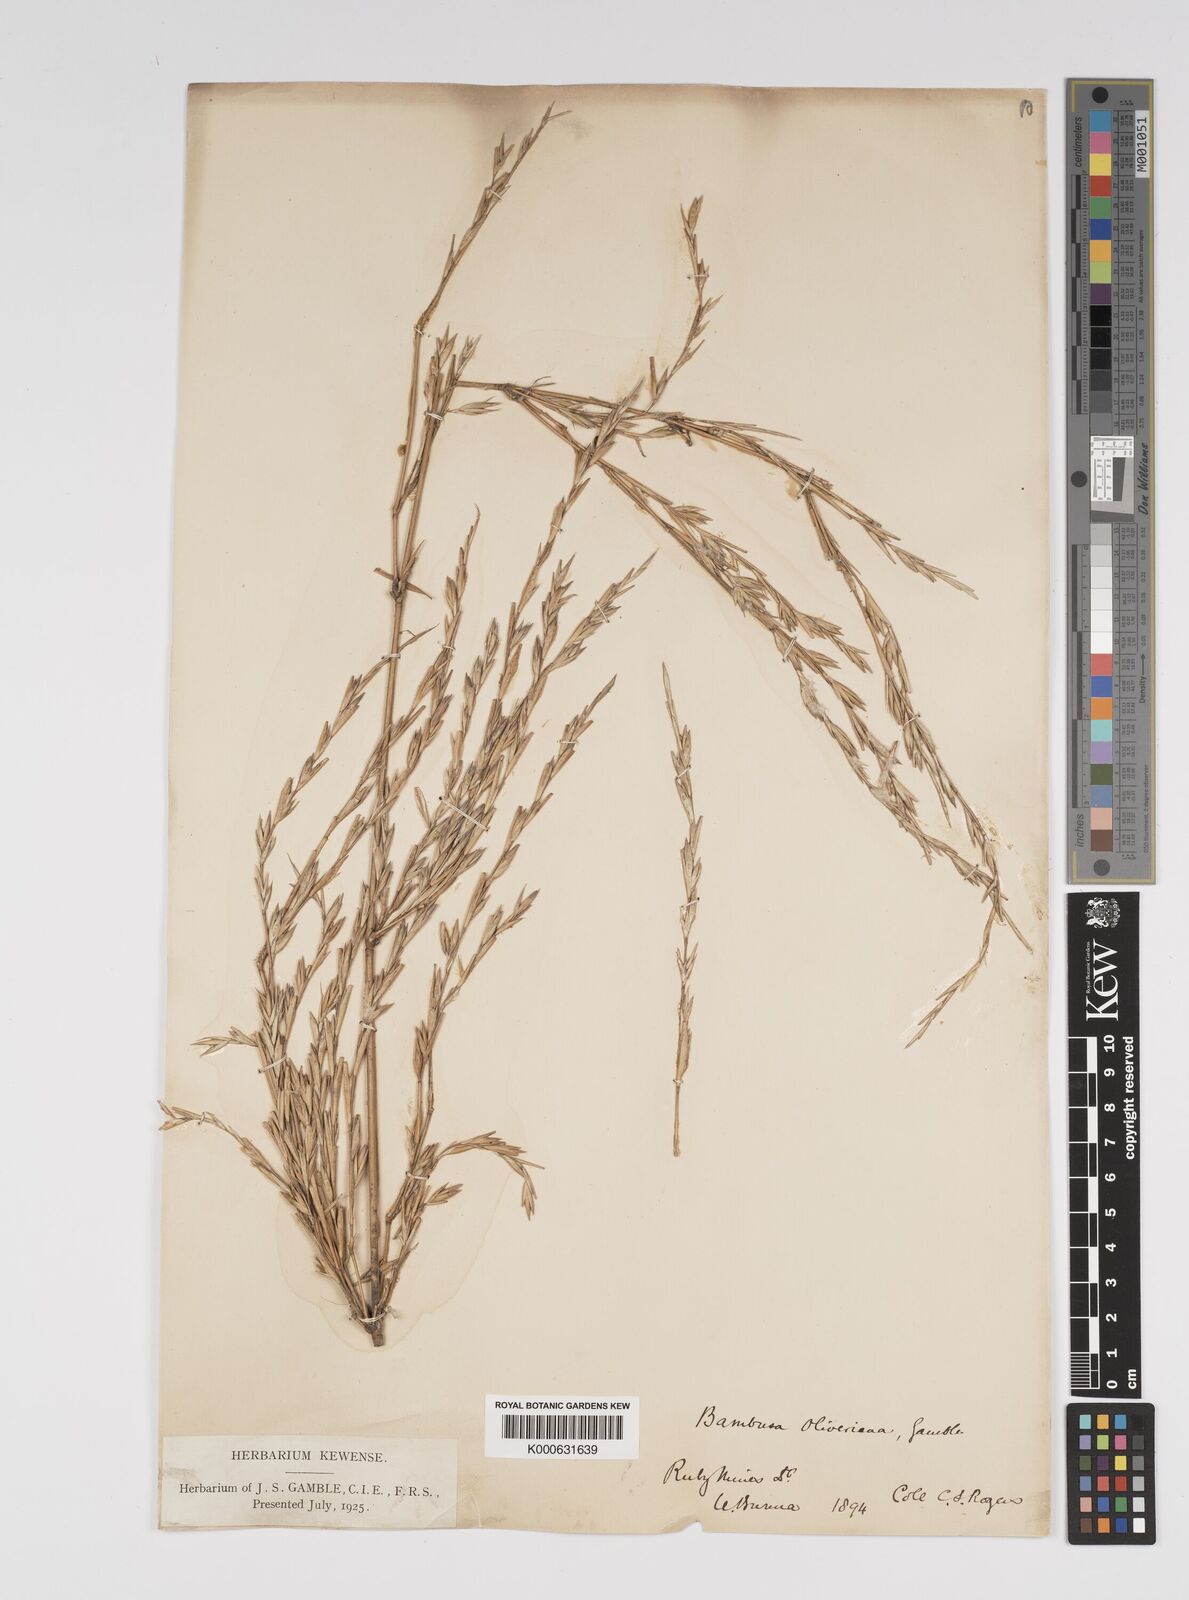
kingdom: Plantae
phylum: Tracheophyta
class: Liliopsida
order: Poales
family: Poaceae
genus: Bambusa
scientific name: Bambusa
